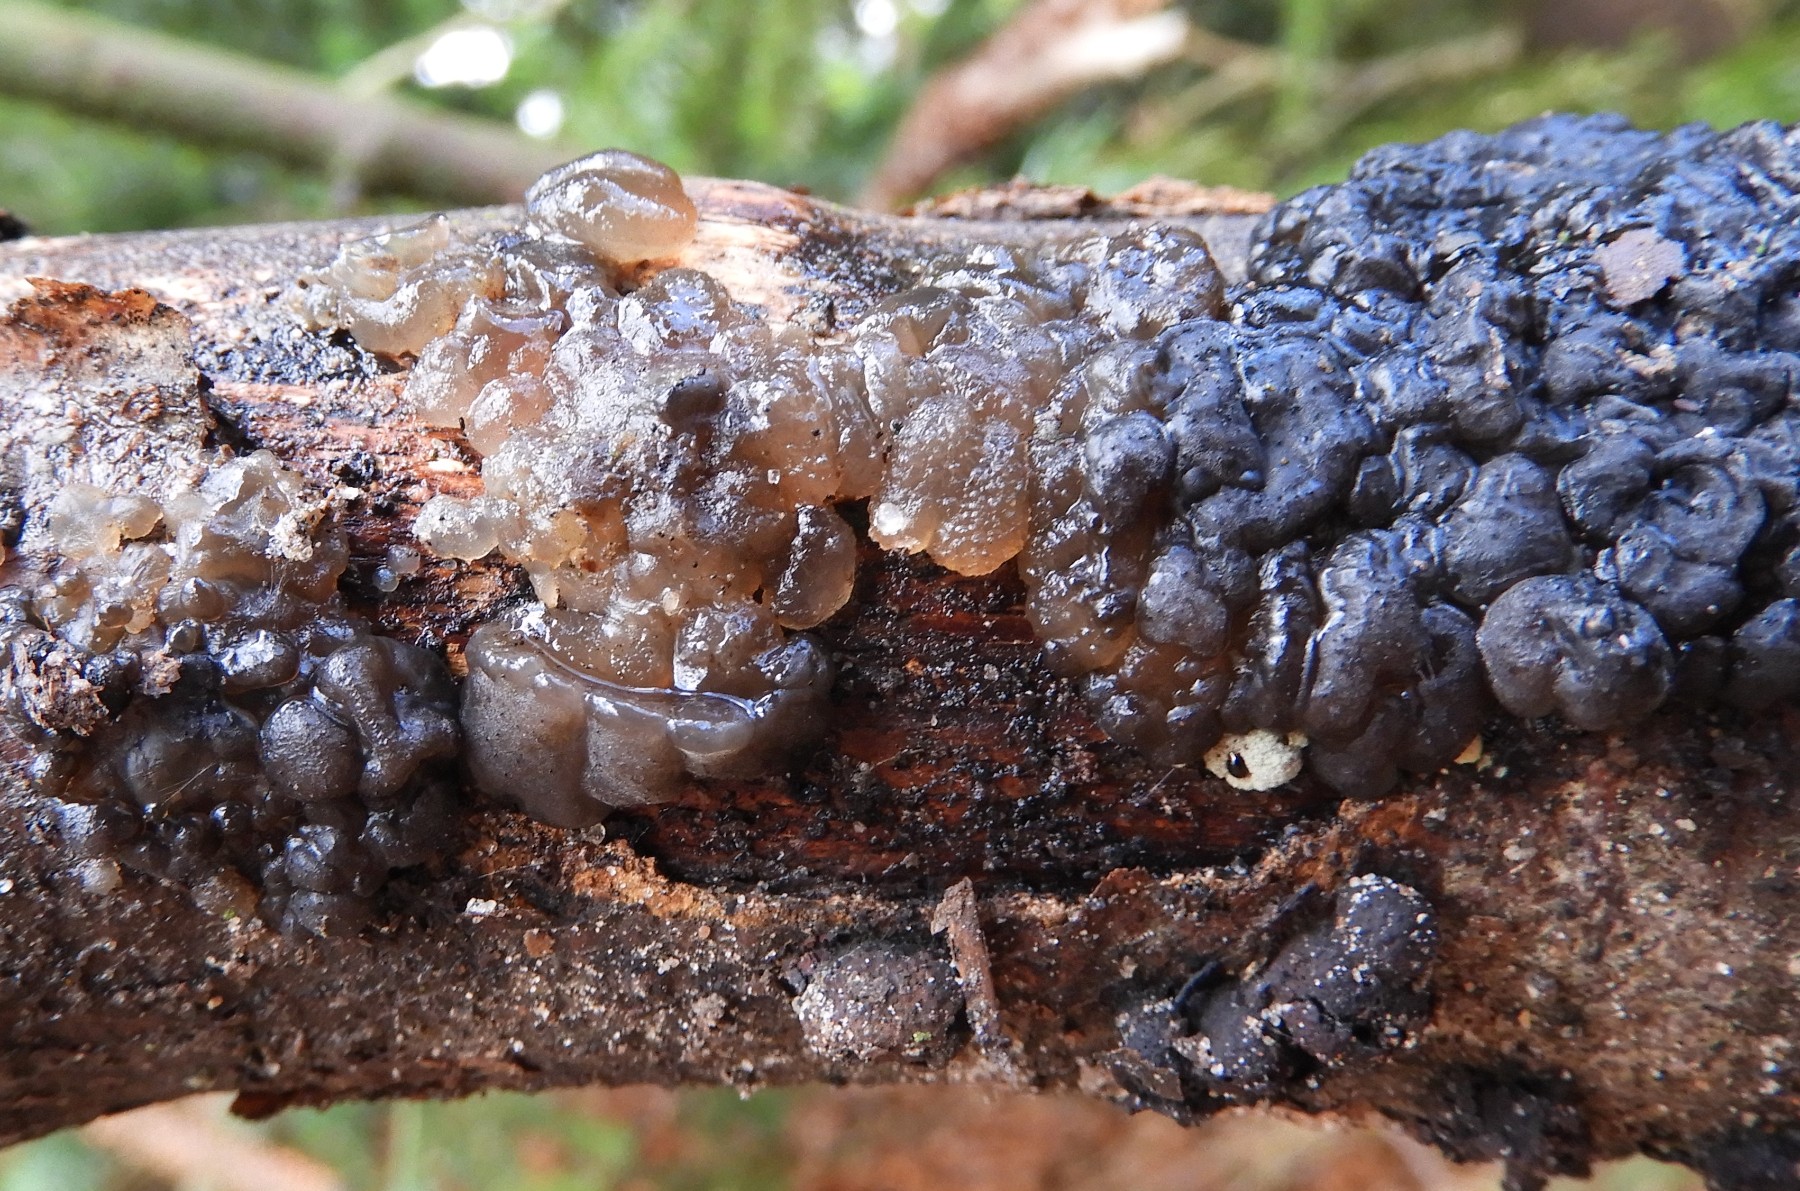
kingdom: Fungi
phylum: Basidiomycota
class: Agaricomycetes
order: Auriculariales
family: Auriculariaceae
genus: Exidia
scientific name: Exidia nigricans
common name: almindelig bævretop
